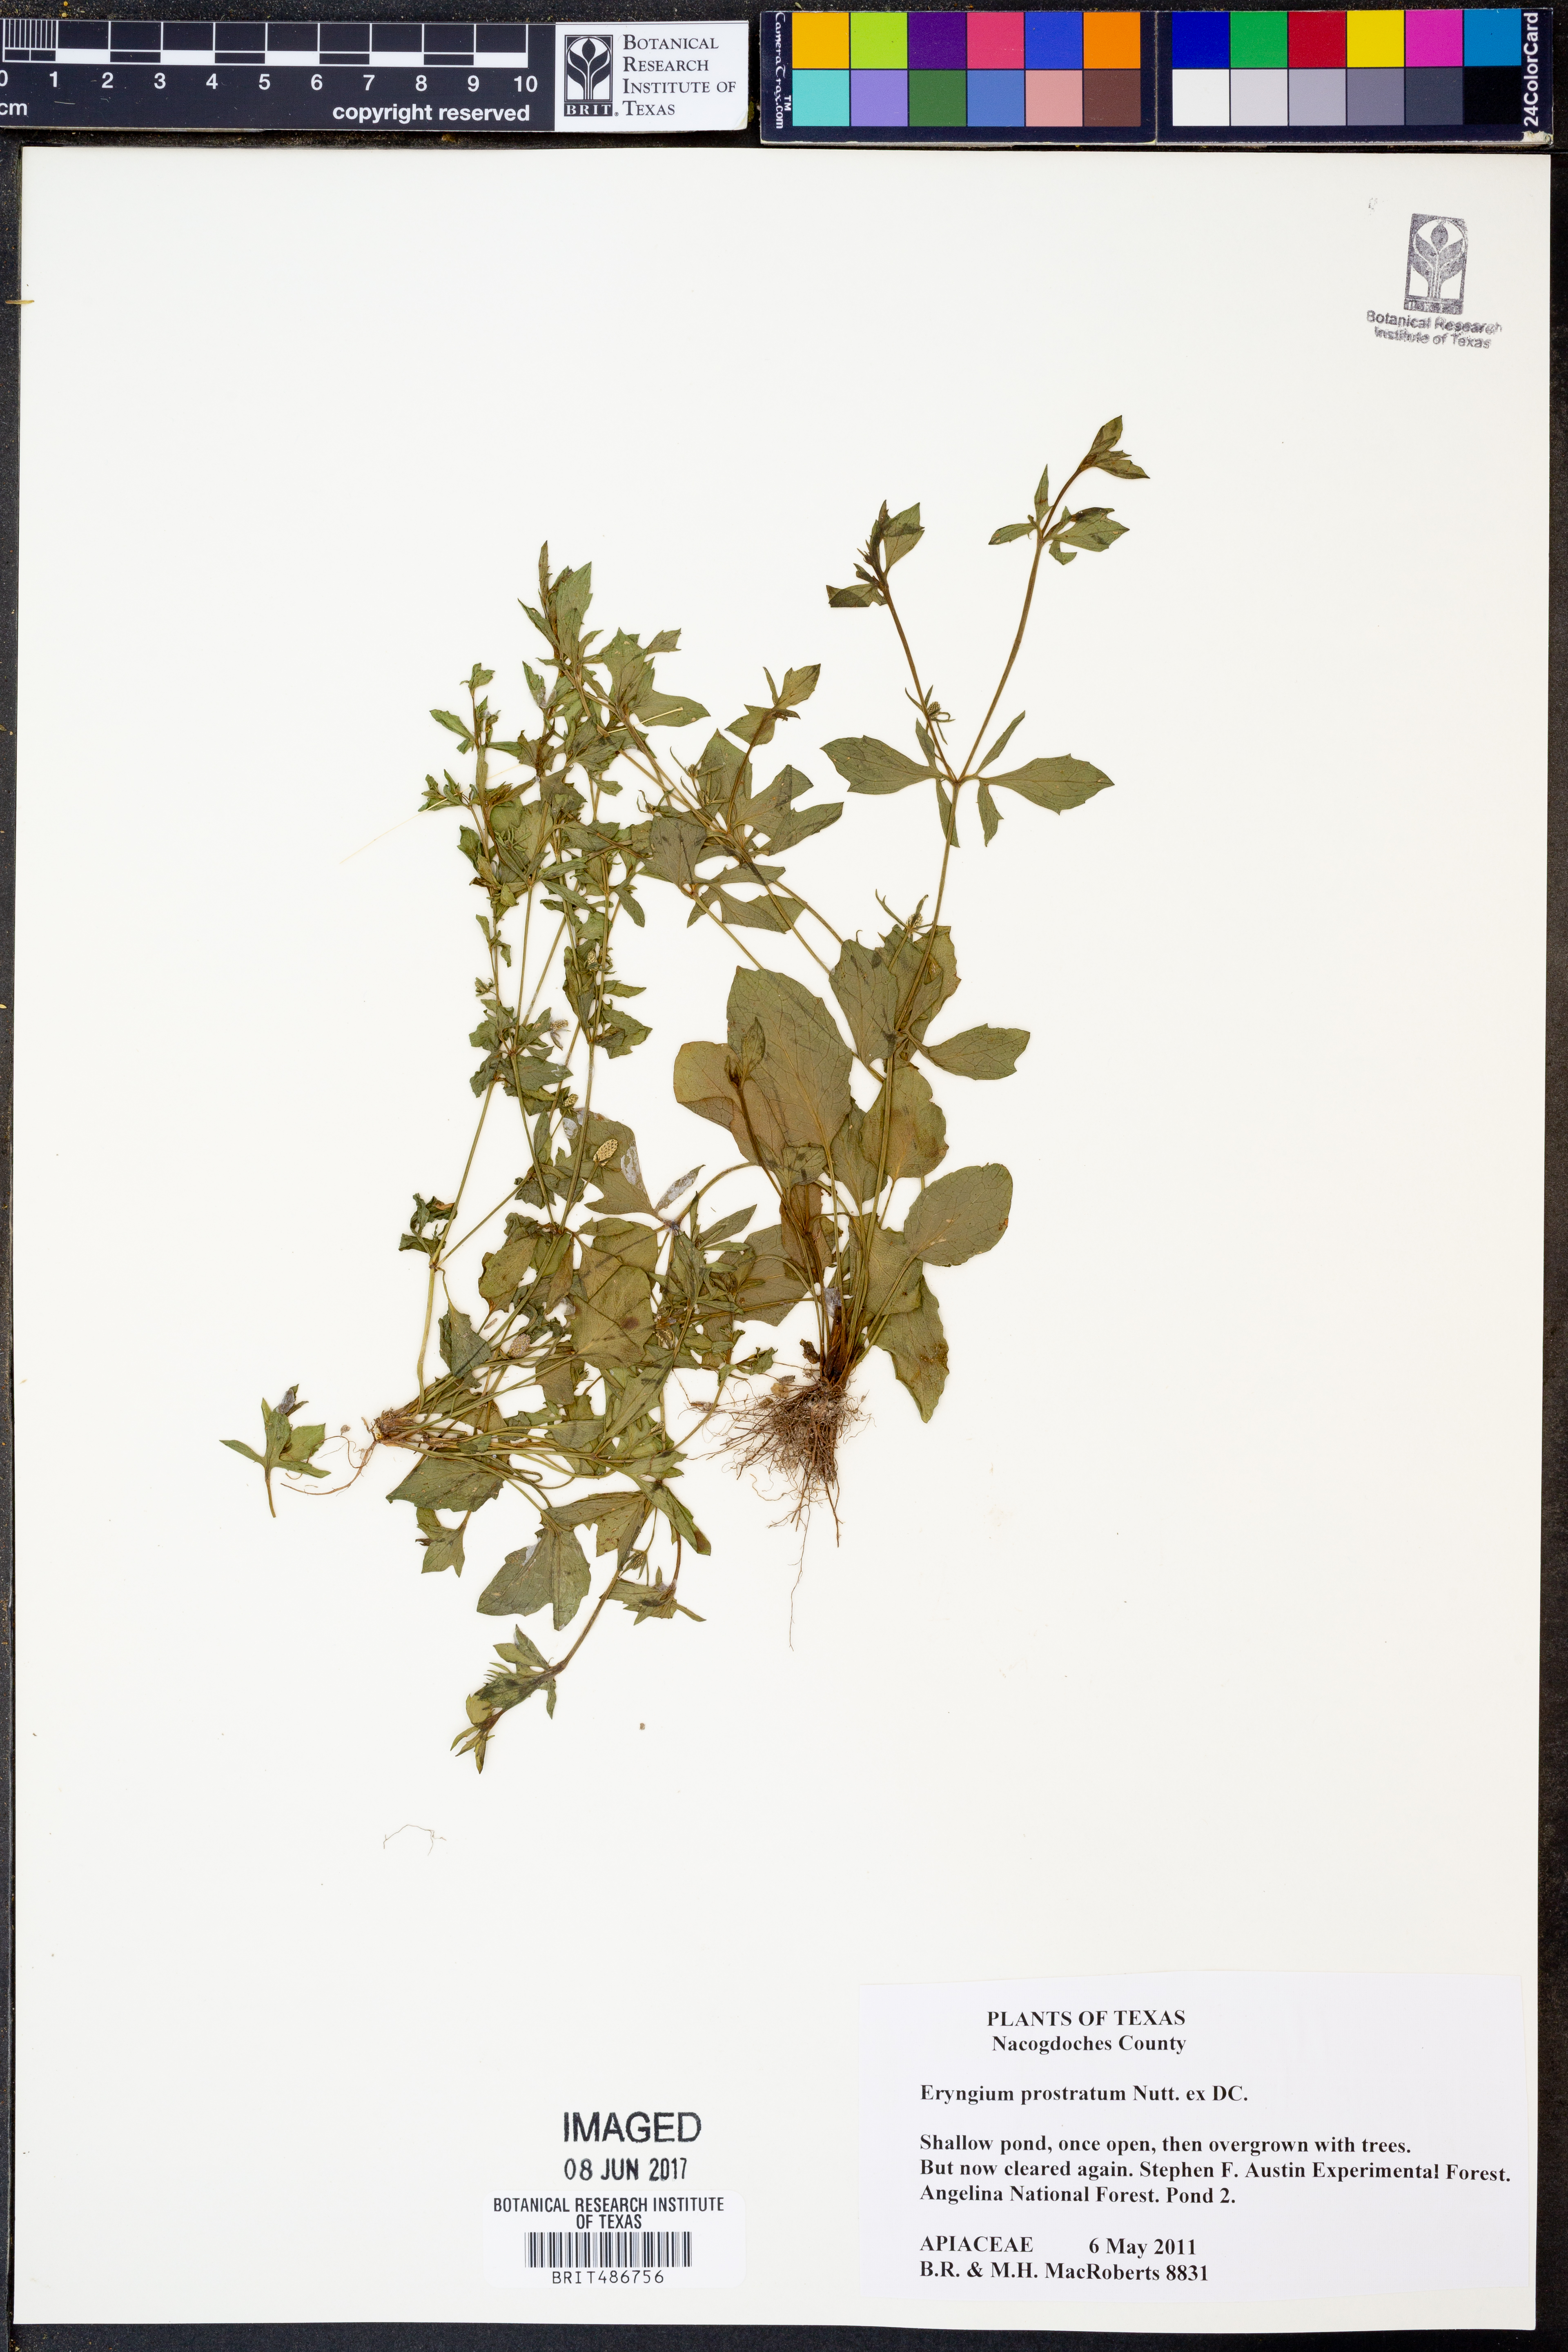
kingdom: Plantae
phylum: Tracheophyta
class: Magnoliopsida
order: Apiales
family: Apiaceae
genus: Eryngium
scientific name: Eryngium prostratum
